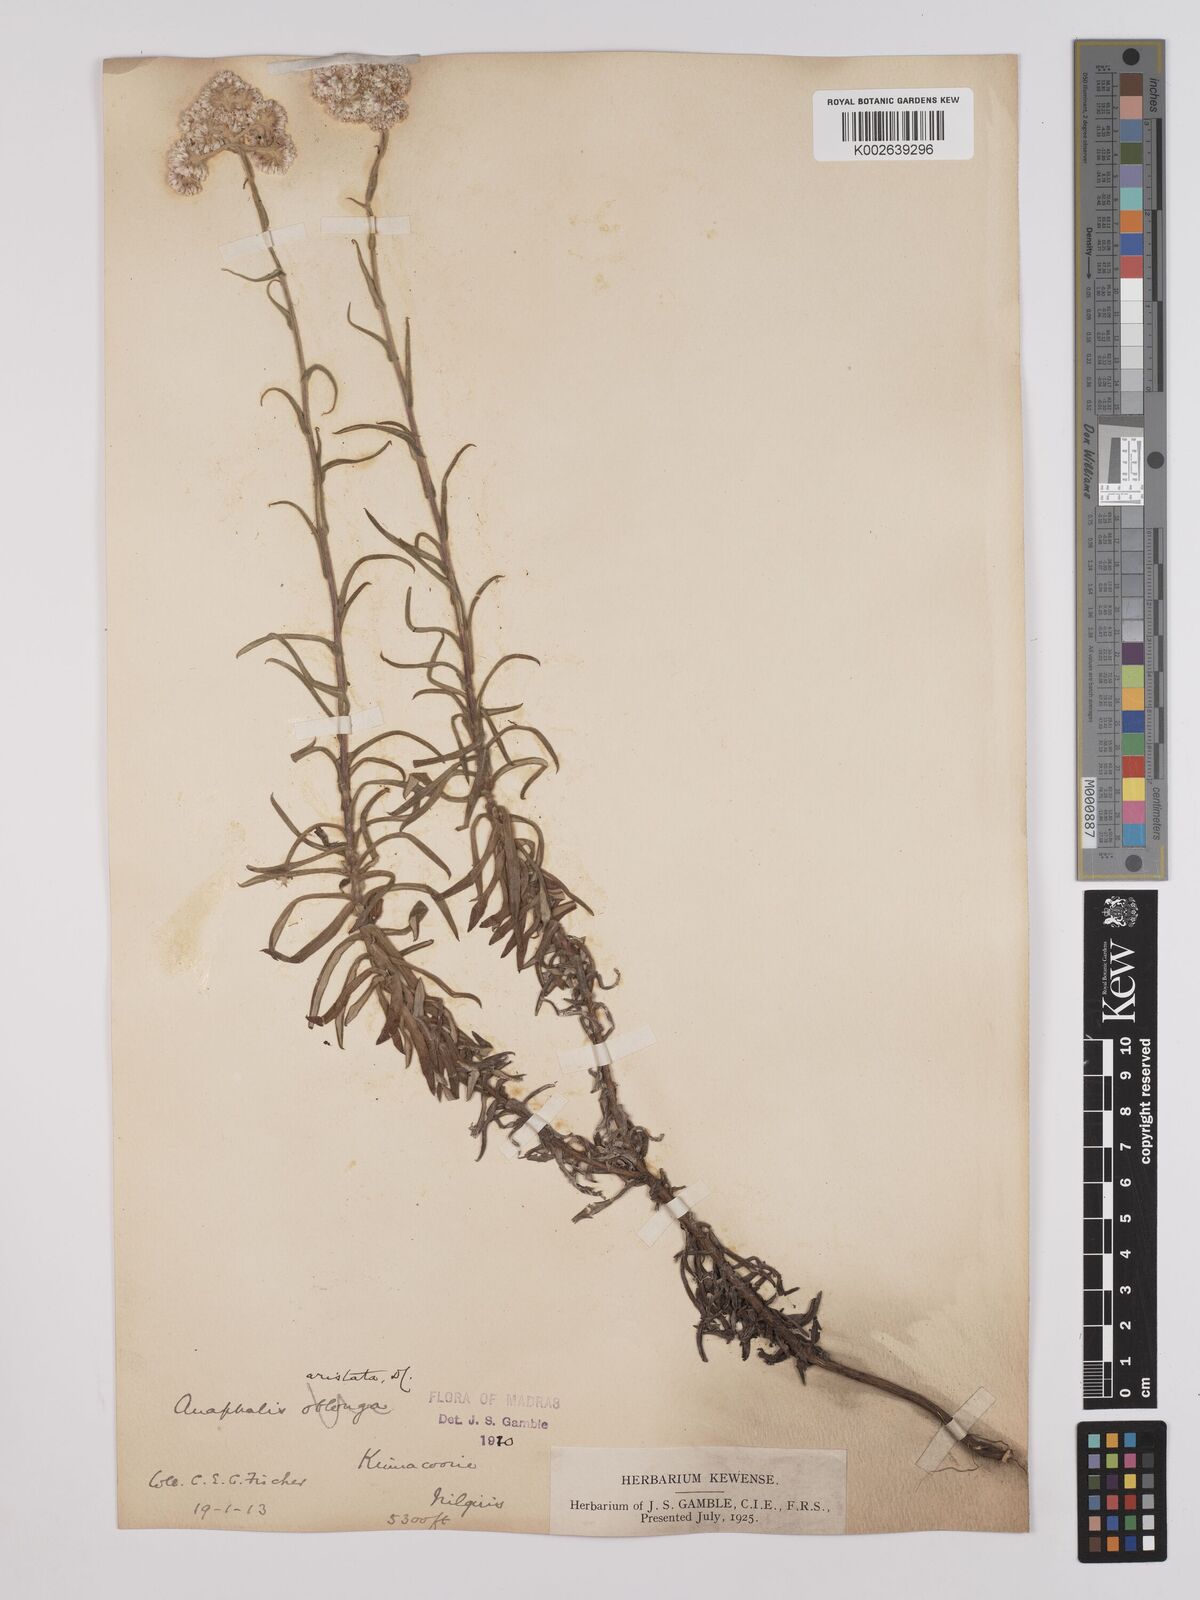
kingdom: Plantae
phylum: Tracheophyta
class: Magnoliopsida
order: Asterales
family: Asteraceae
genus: Anaphalis
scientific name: Anaphalis aristata
